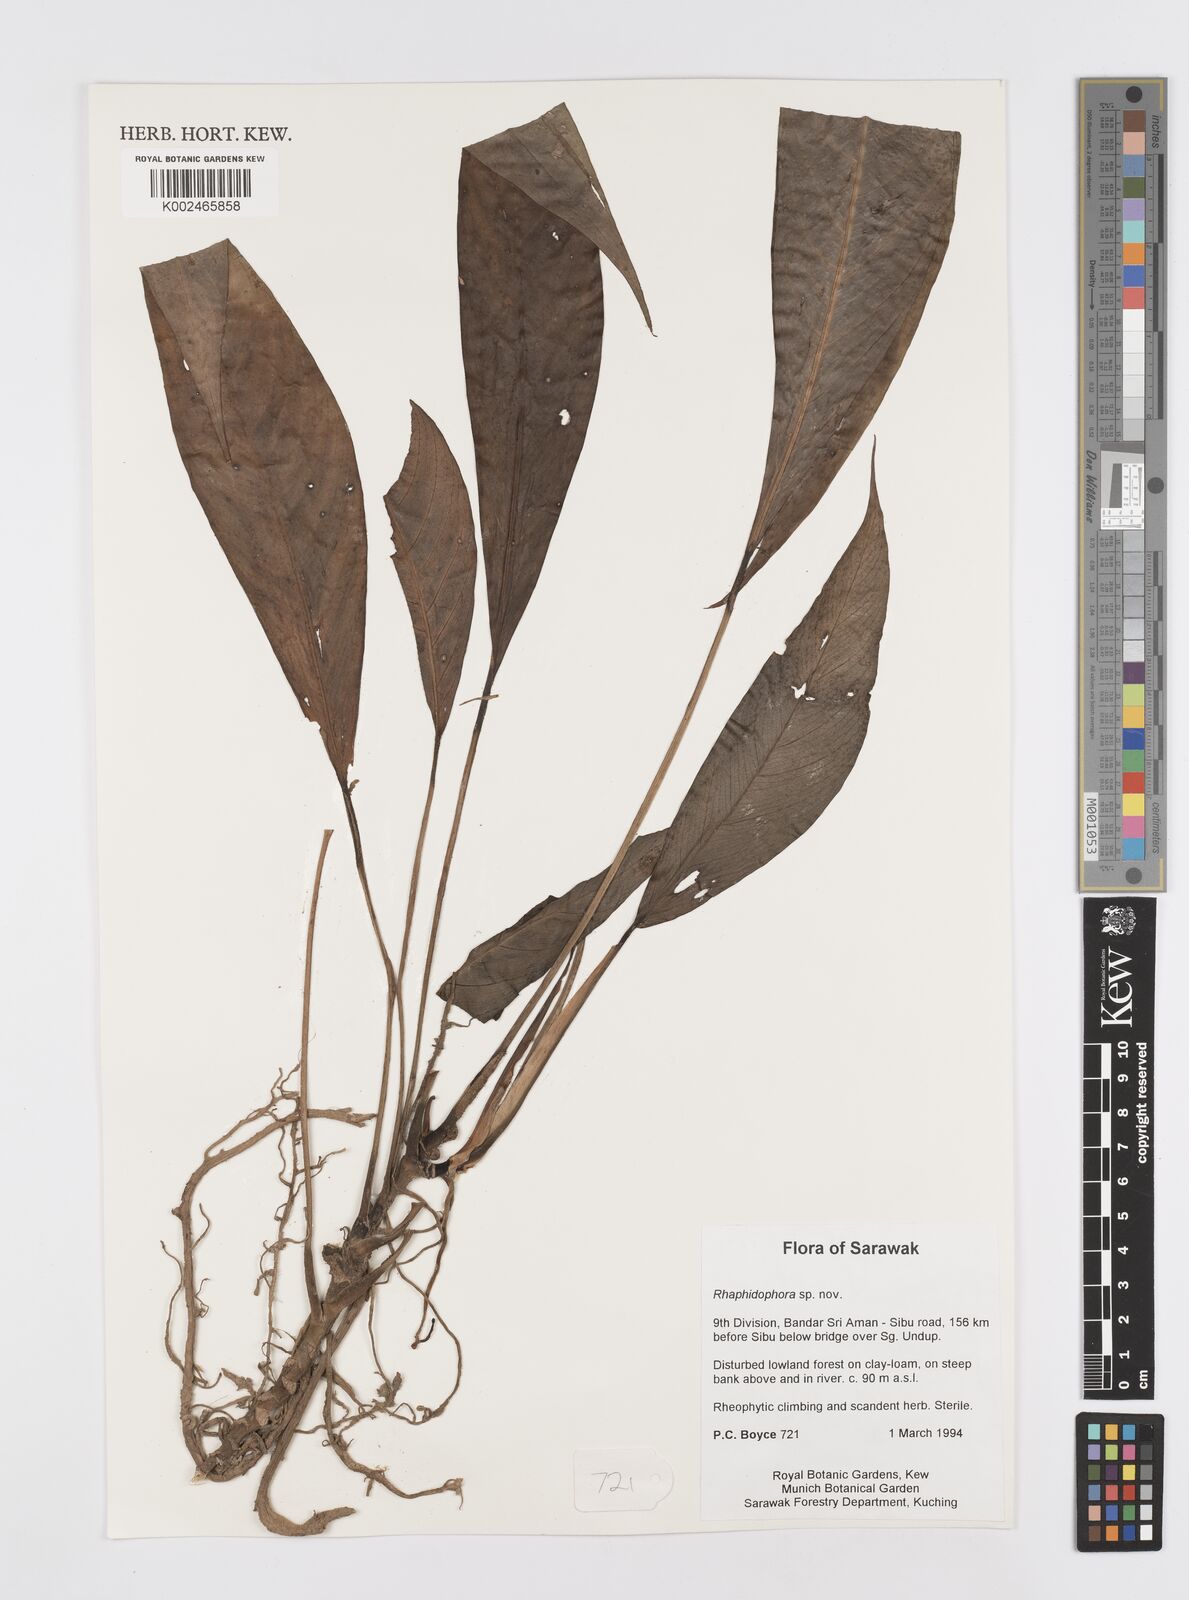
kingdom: Plantae
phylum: Tracheophyta
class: Liliopsida
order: Alismatales
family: Araceae
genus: Rhaphidophora
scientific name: Rhaphidophora megasperma
